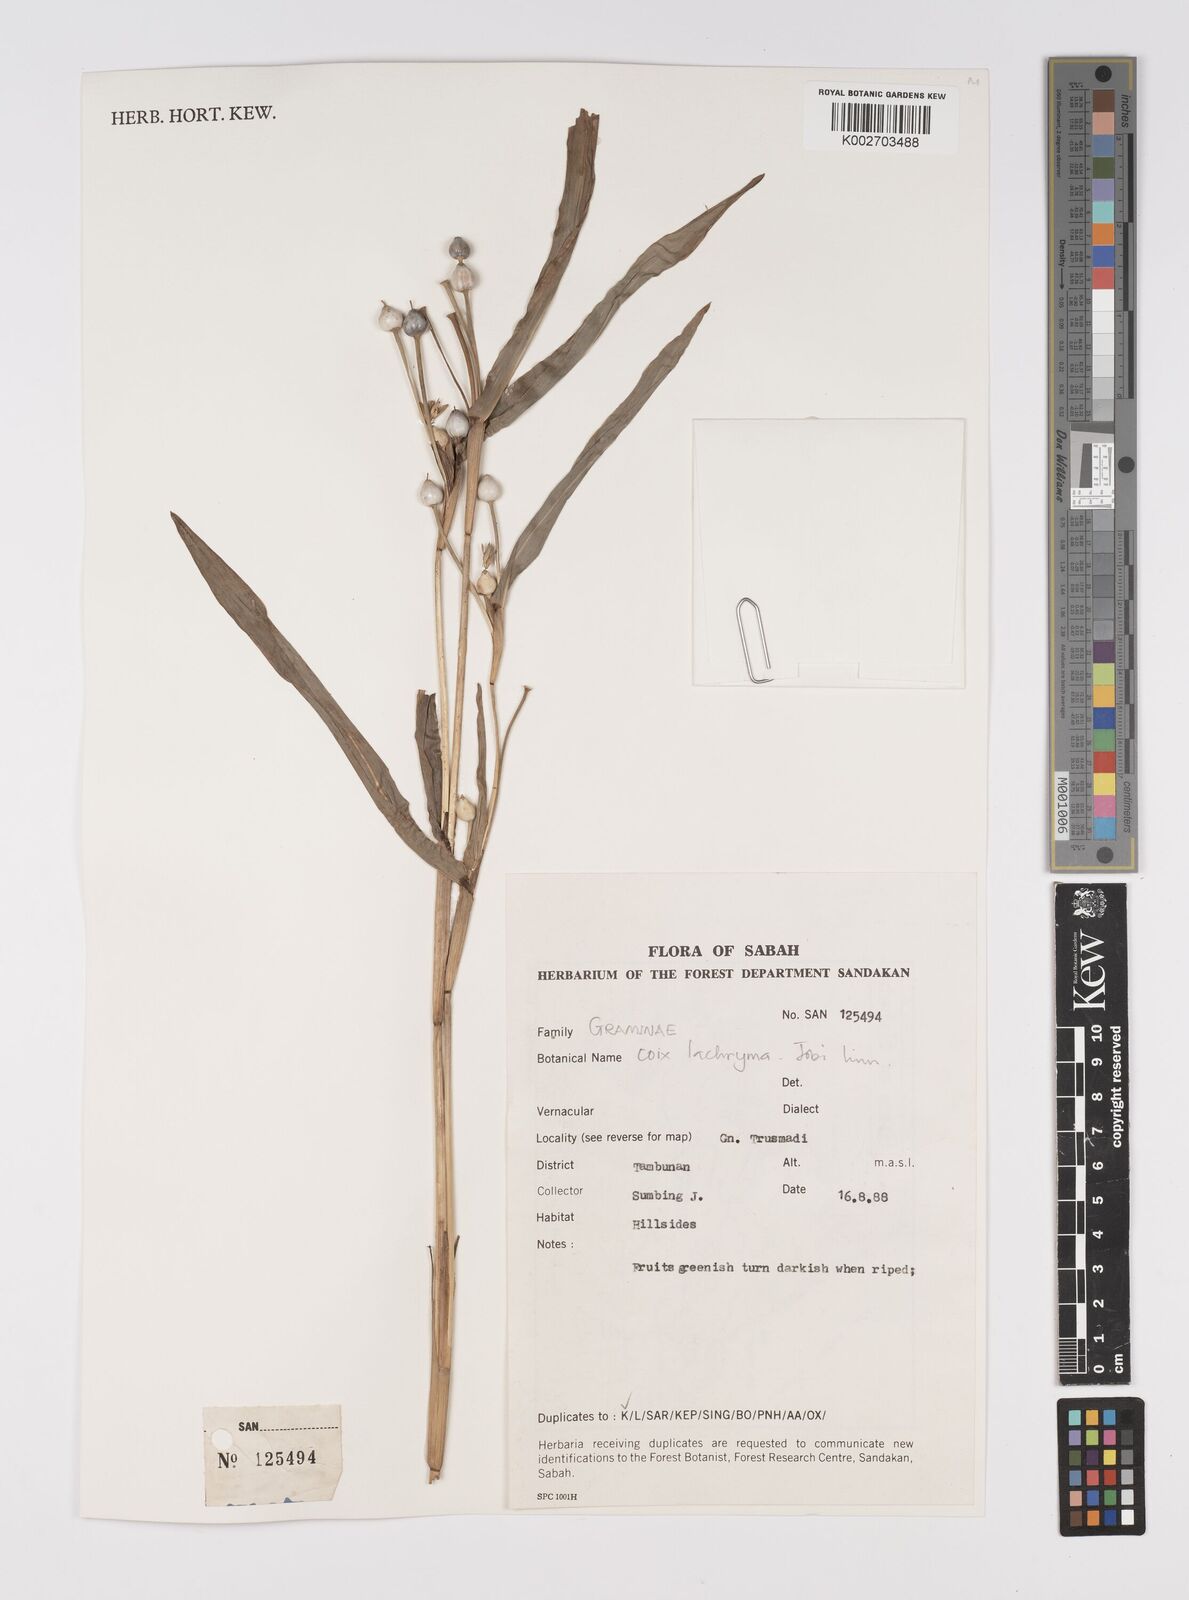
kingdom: Plantae
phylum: Tracheophyta
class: Liliopsida
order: Poales
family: Poaceae
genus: Coix
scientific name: Coix lacryma-jobi
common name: Job's tears
